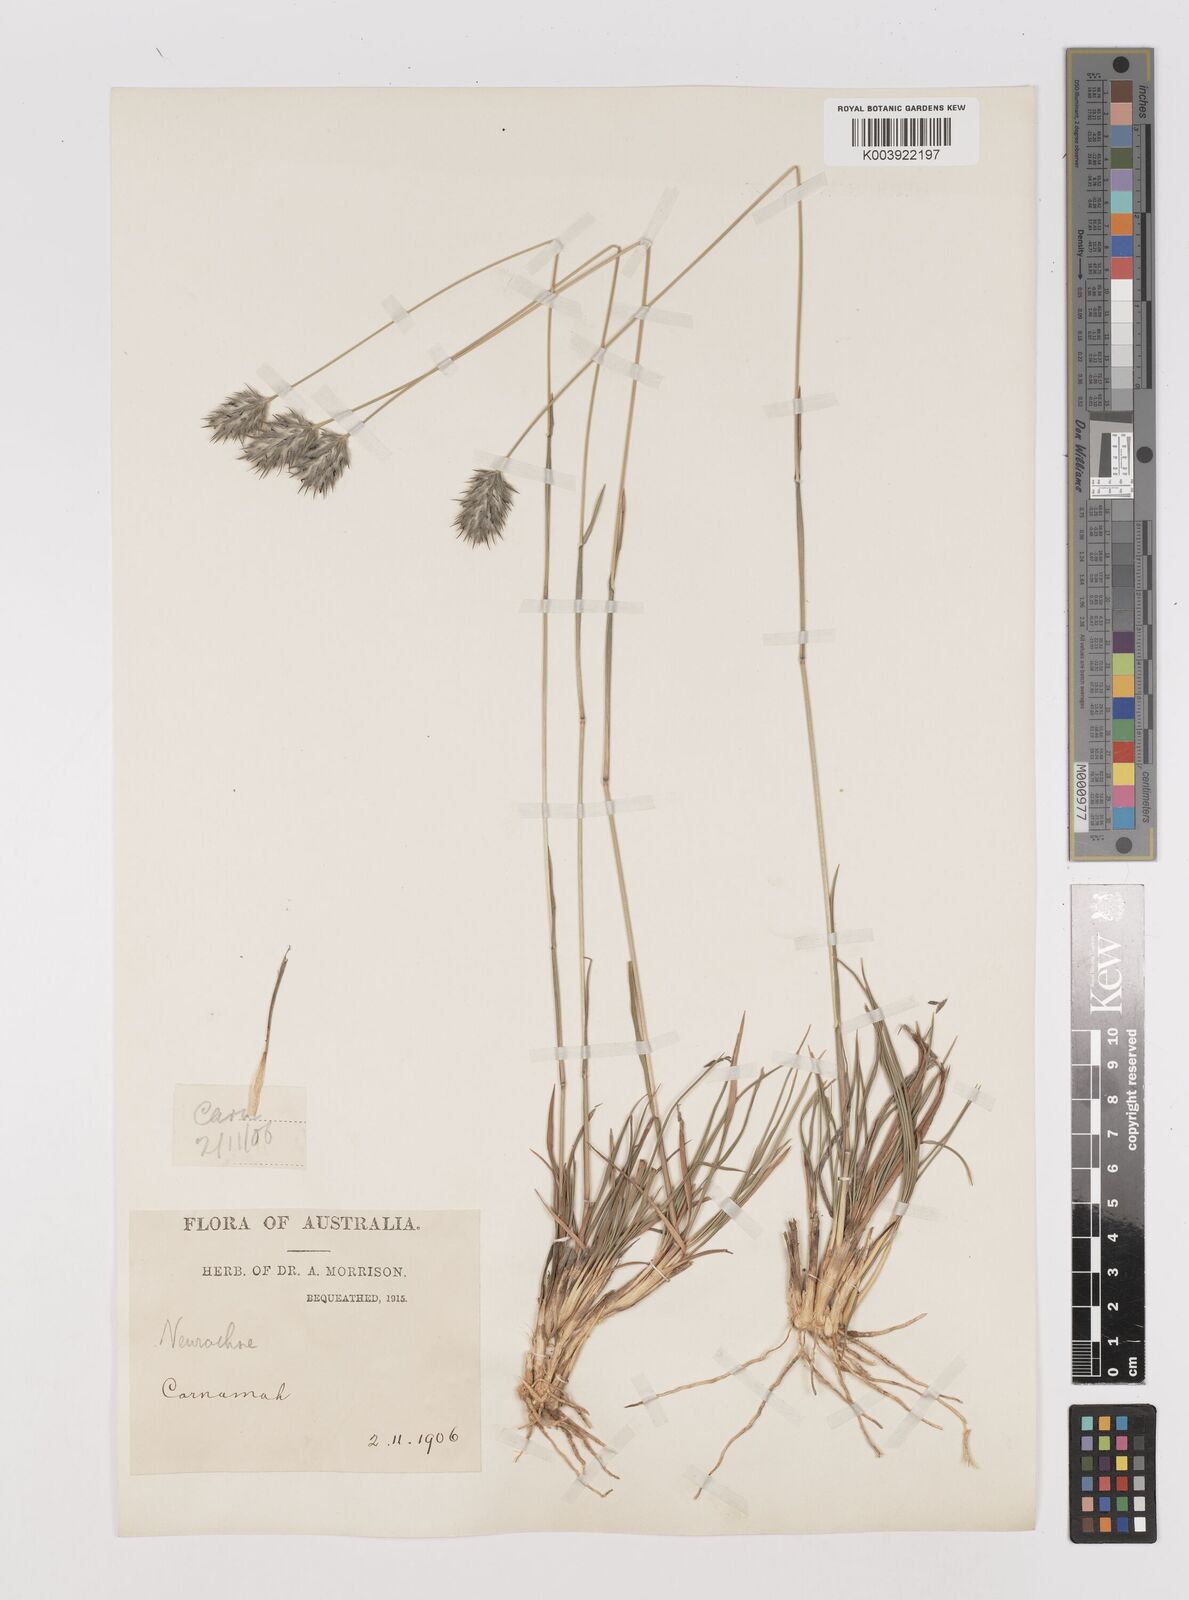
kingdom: Plantae
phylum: Tracheophyta
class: Liliopsida
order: Poales
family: Poaceae
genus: Neurachne
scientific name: Neurachne alopecuroidea
